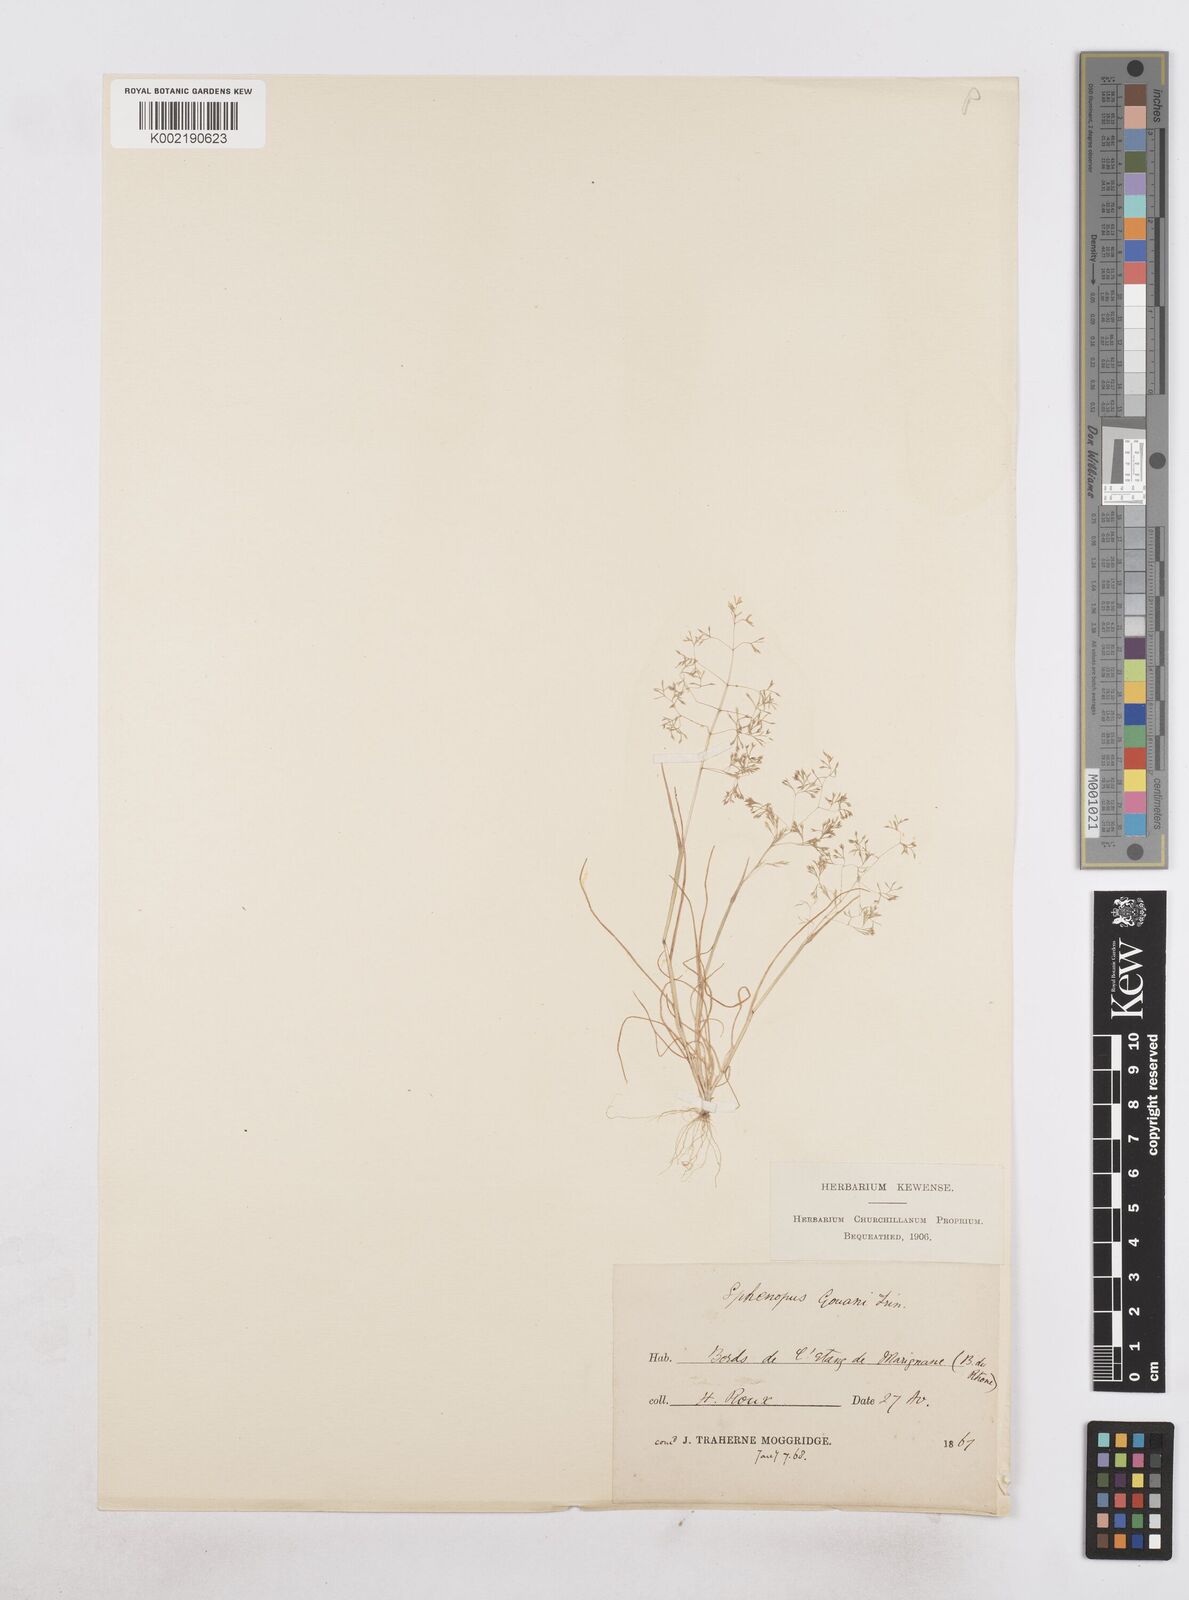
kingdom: Plantae
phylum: Tracheophyta
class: Liliopsida
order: Poales
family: Poaceae
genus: Sphenopus
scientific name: Sphenopus divaricatus
